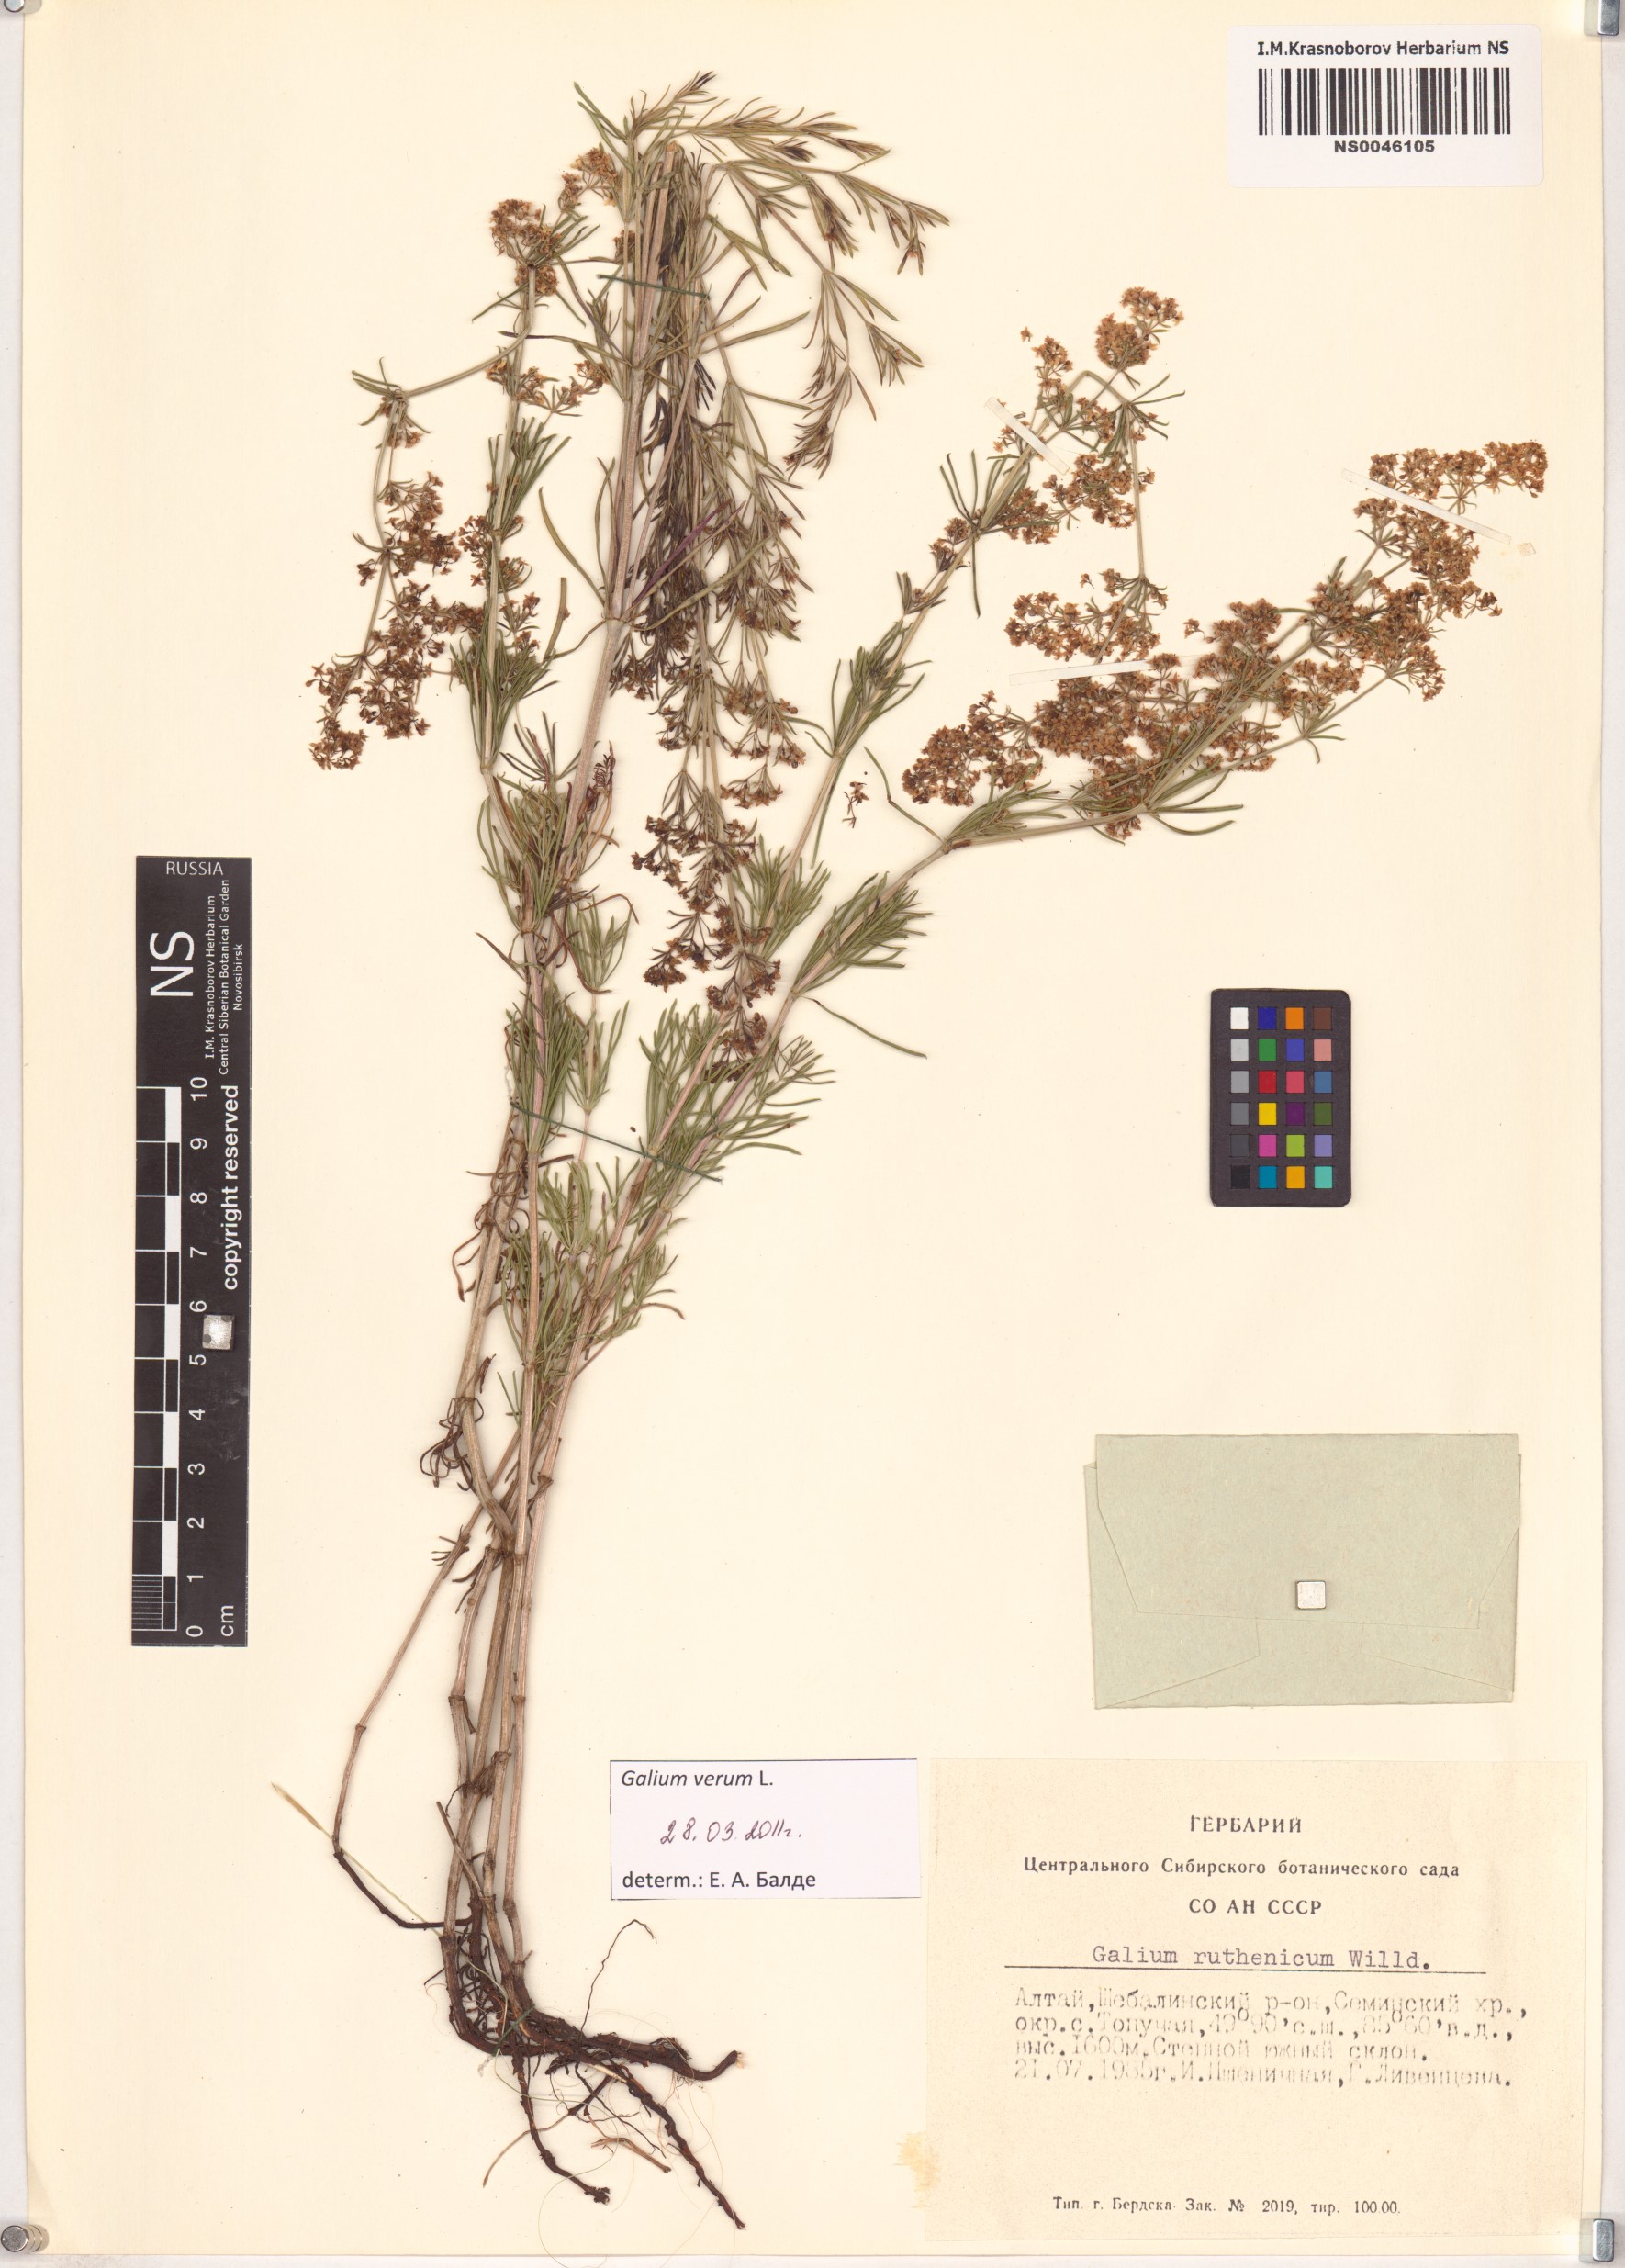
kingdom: Plantae
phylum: Tracheophyta
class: Magnoliopsida
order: Gentianales
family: Rubiaceae
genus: Galium
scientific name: Galium verum
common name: Lady's bedstraw
